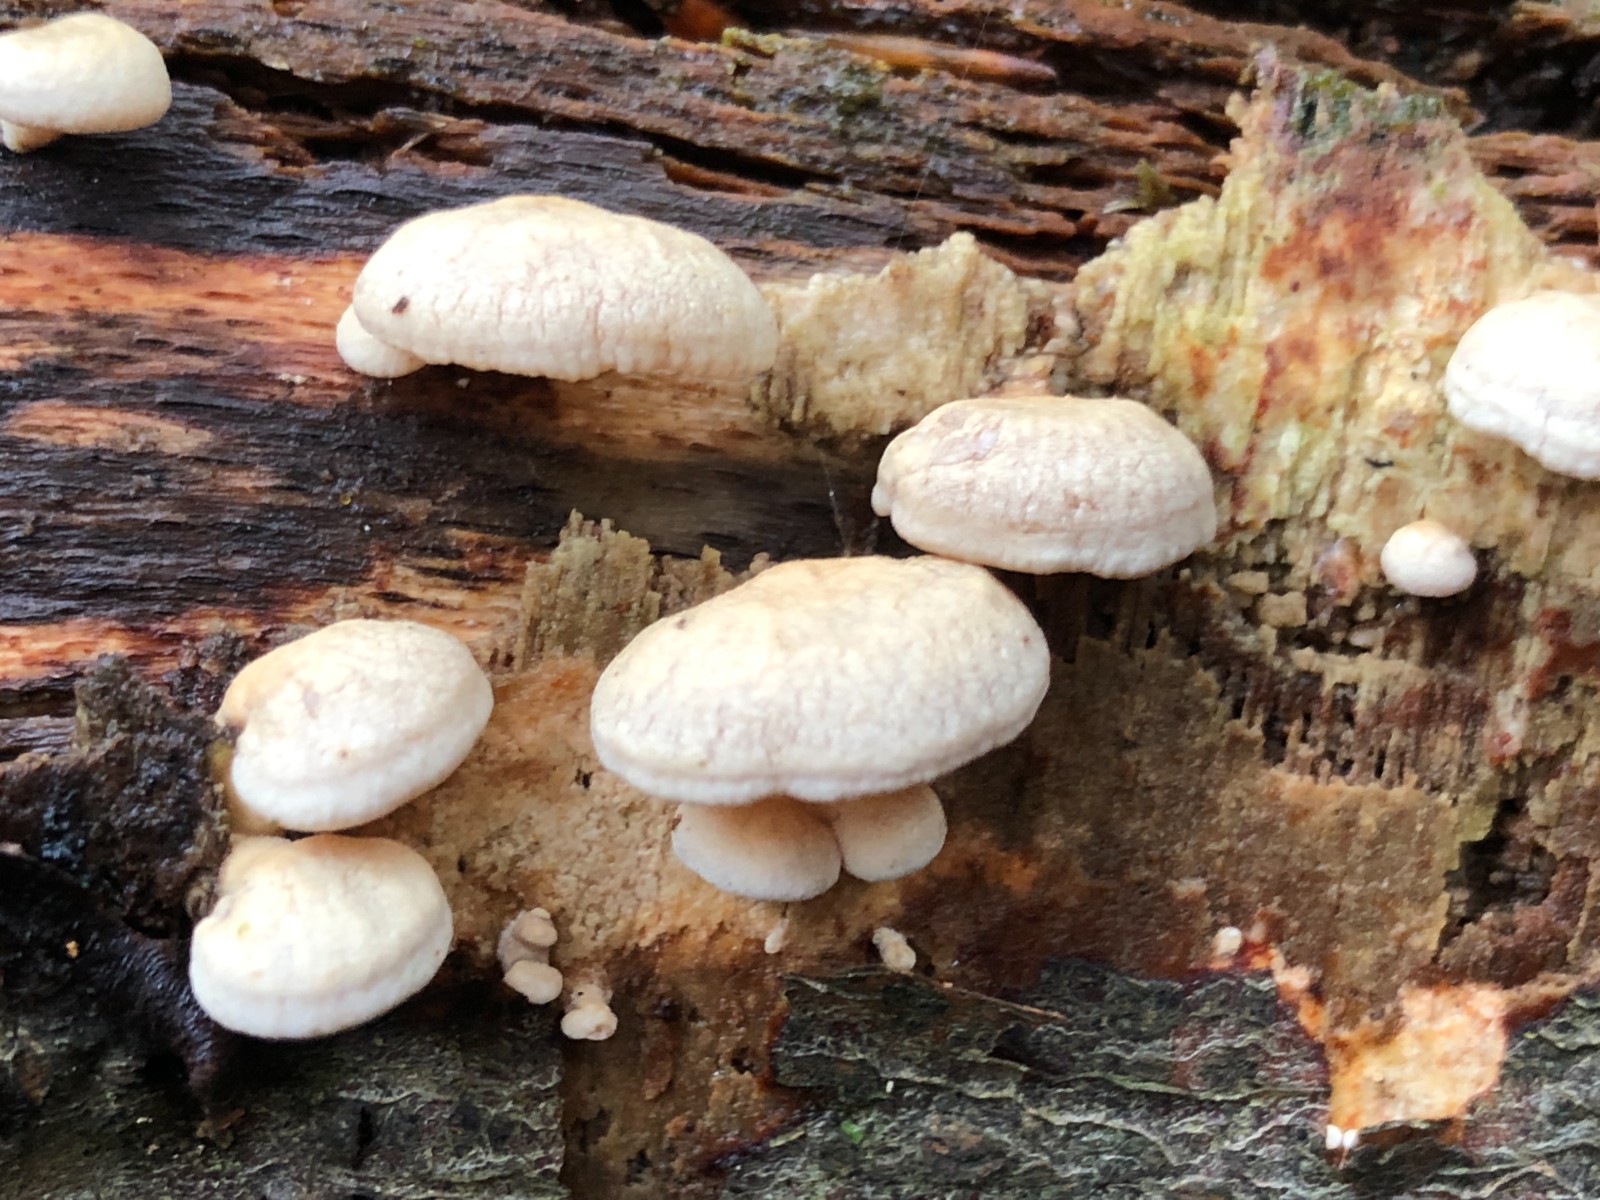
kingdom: Fungi
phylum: Basidiomycota
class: Agaricomycetes
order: Agaricales
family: Mycenaceae
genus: Panellus
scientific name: Panellus stipticus
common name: kliddet epaulethat
